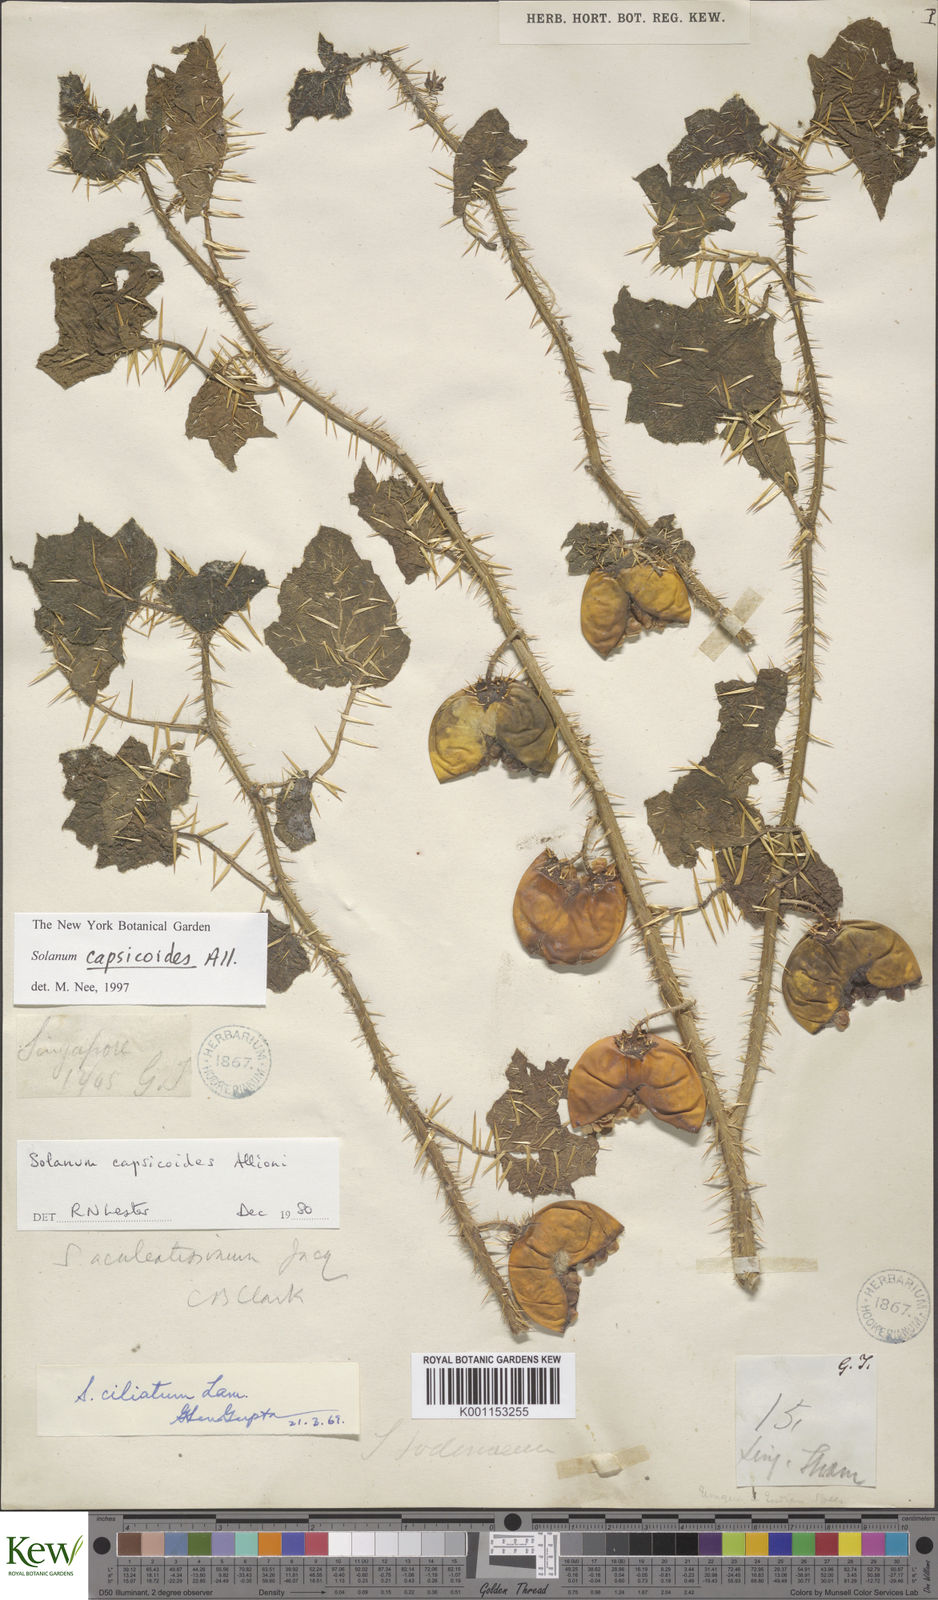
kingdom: Plantae
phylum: Tracheophyta
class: Magnoliopsida
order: Solanales
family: Solanaceae
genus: Solanum
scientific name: Solanum capsicoides
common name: Cockroach berry
